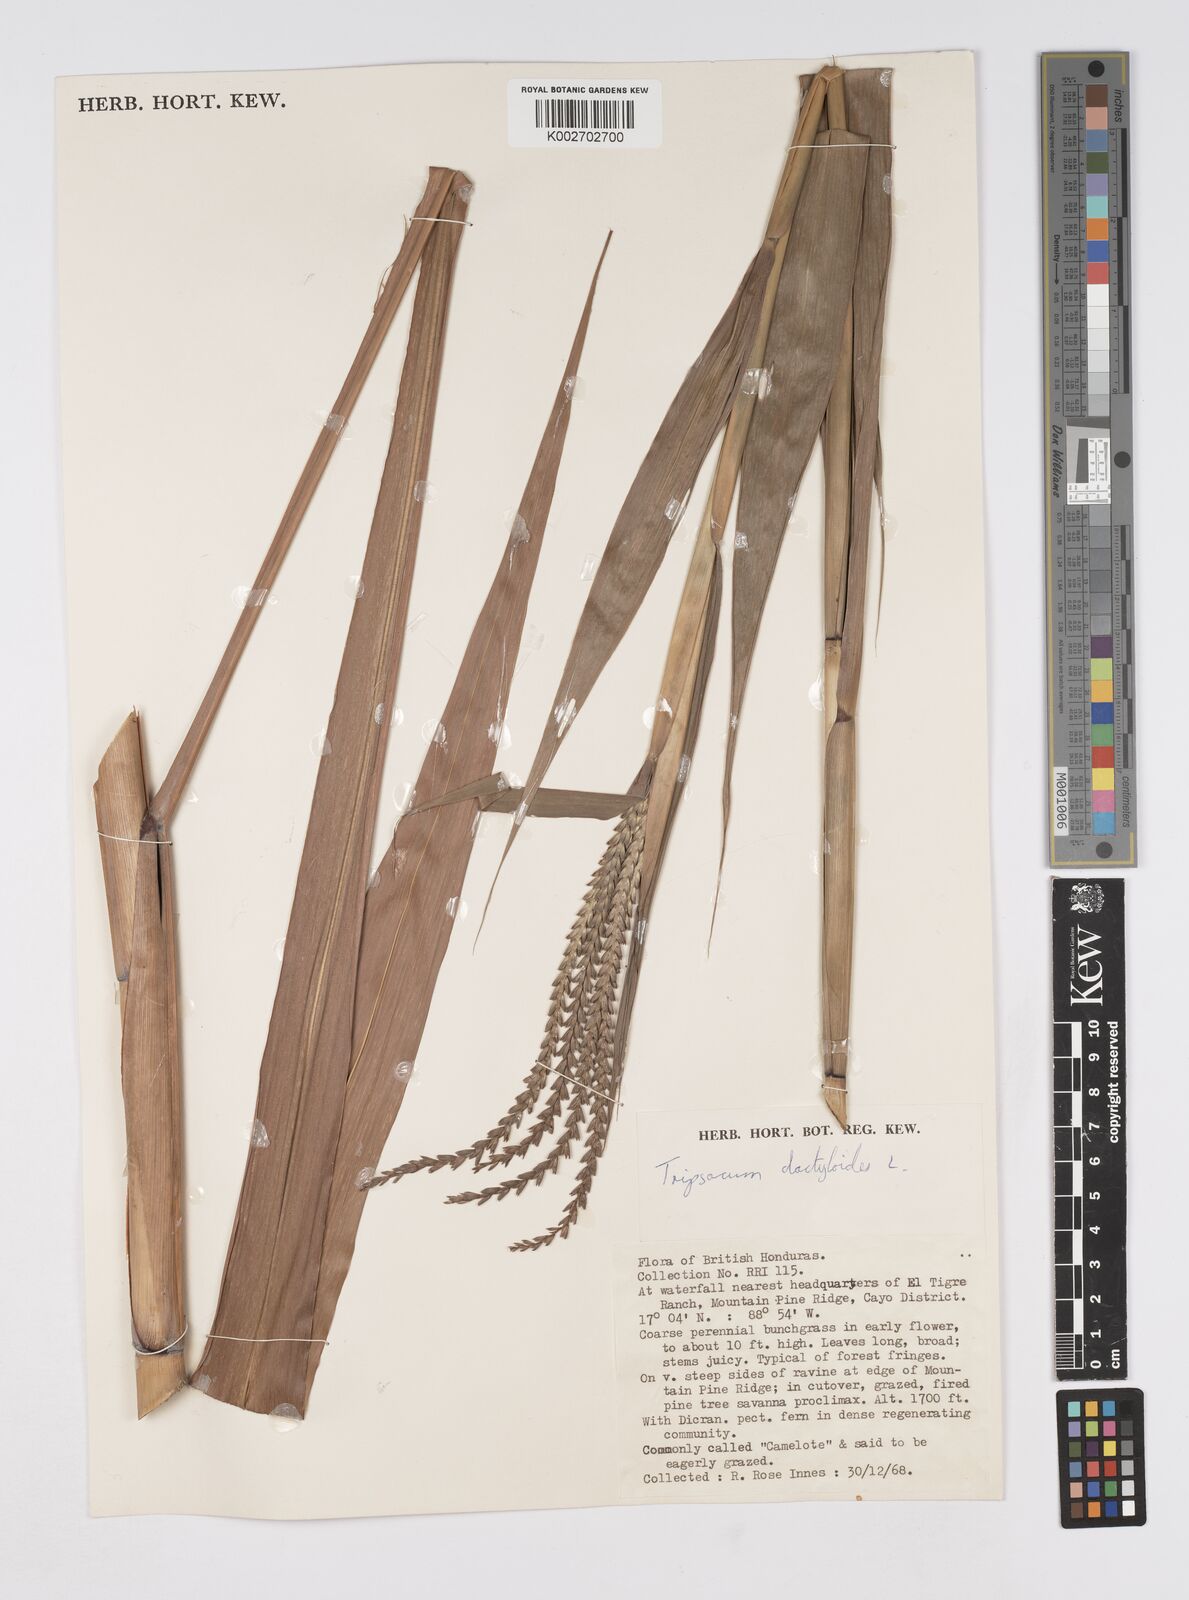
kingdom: Plantae
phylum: Tracheophyta
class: Liliopsida
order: Poales
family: Poaceae
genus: Tripsacum
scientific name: Tripsacum latifolium
